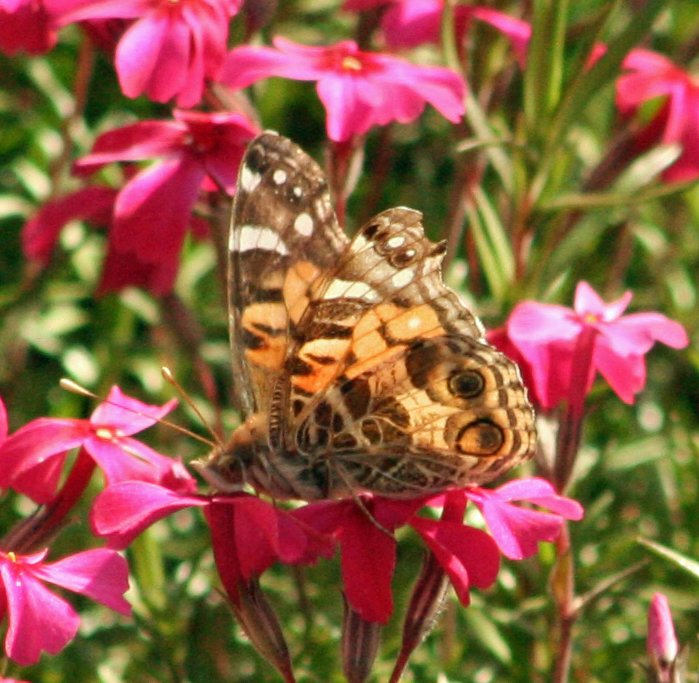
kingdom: Animalia
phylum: Arthropoda
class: Insecta
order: Lepidoptera
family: Nymphalidae
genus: Vanessa
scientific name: Vanessa virginiensis
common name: American Lady
